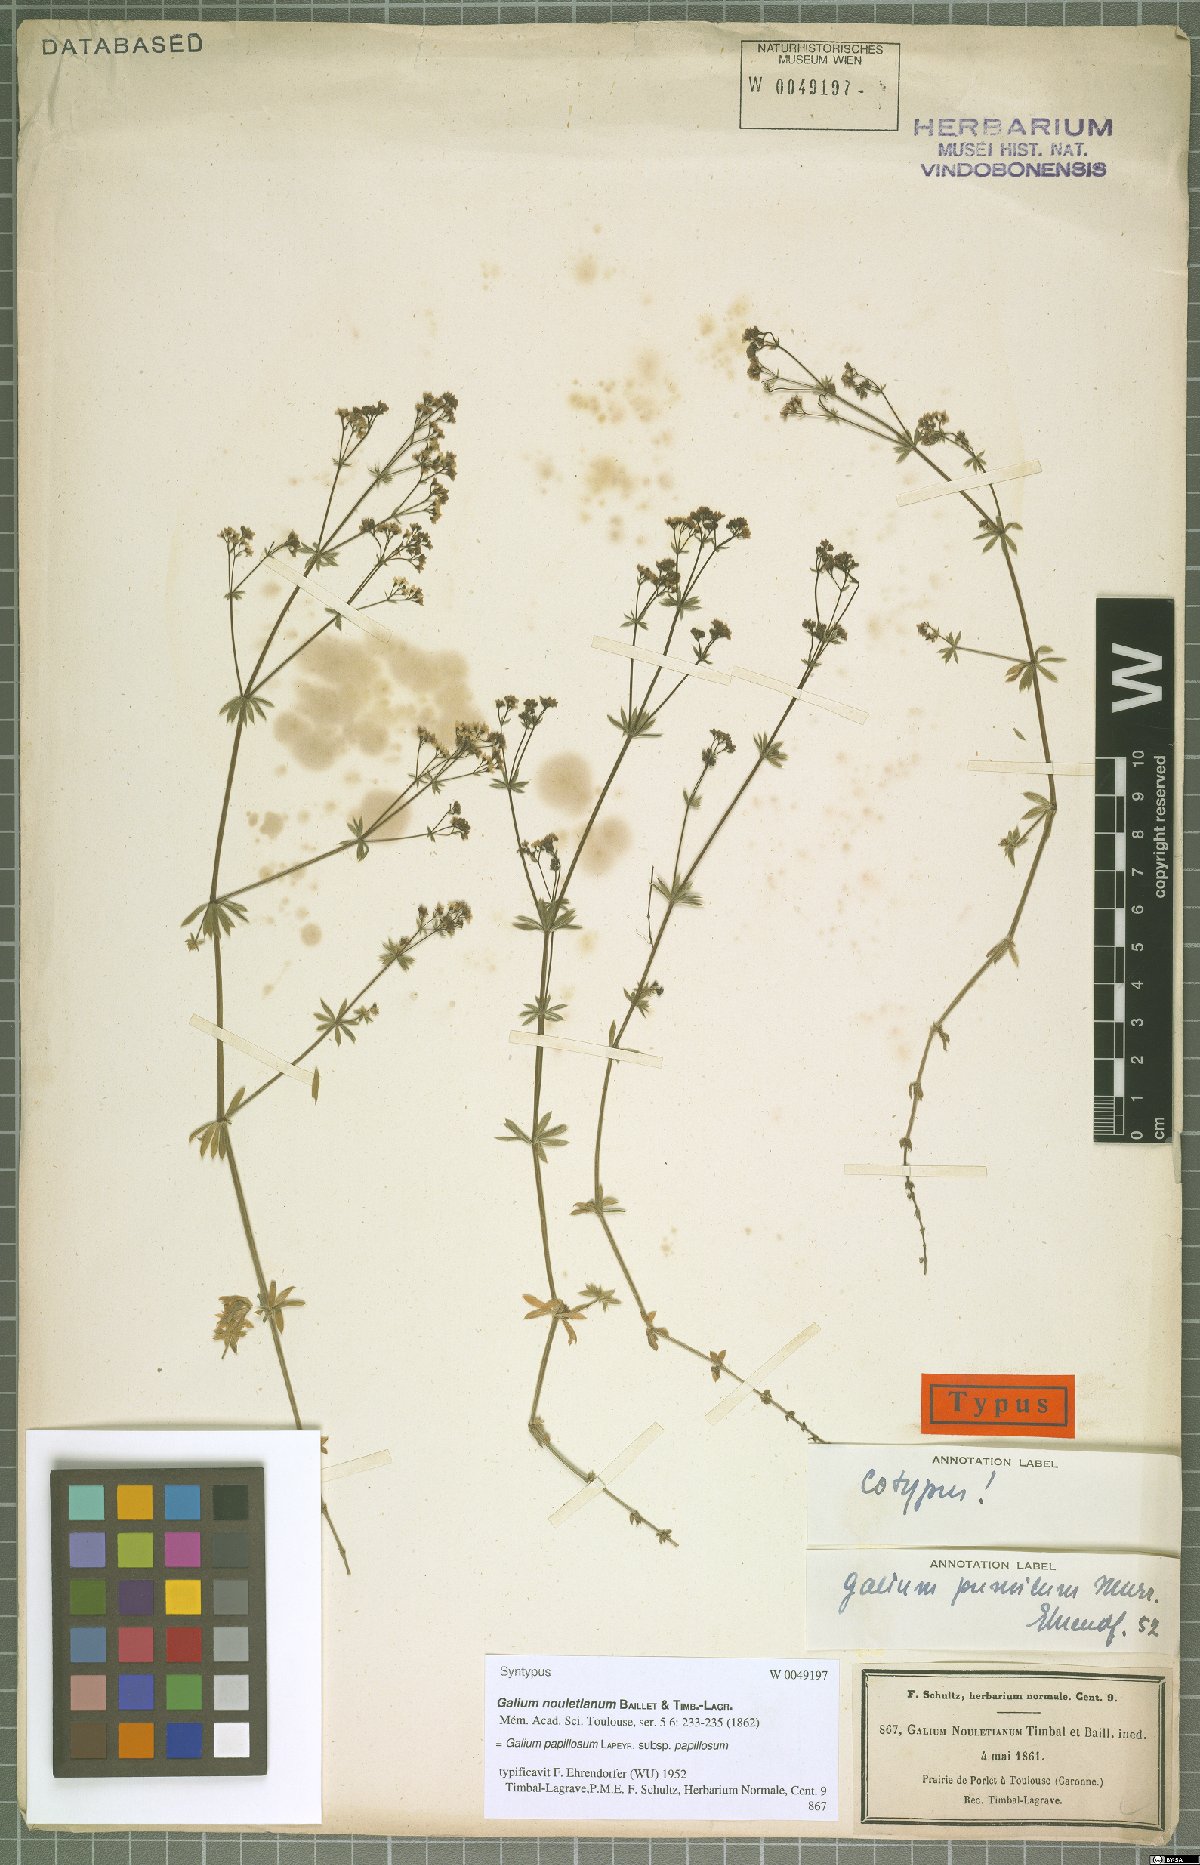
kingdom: Plantae
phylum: Tracheophyta
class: Magnoliopsida
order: Gentianales
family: Rubiaceae
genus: Galium
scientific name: Galium papillosum
